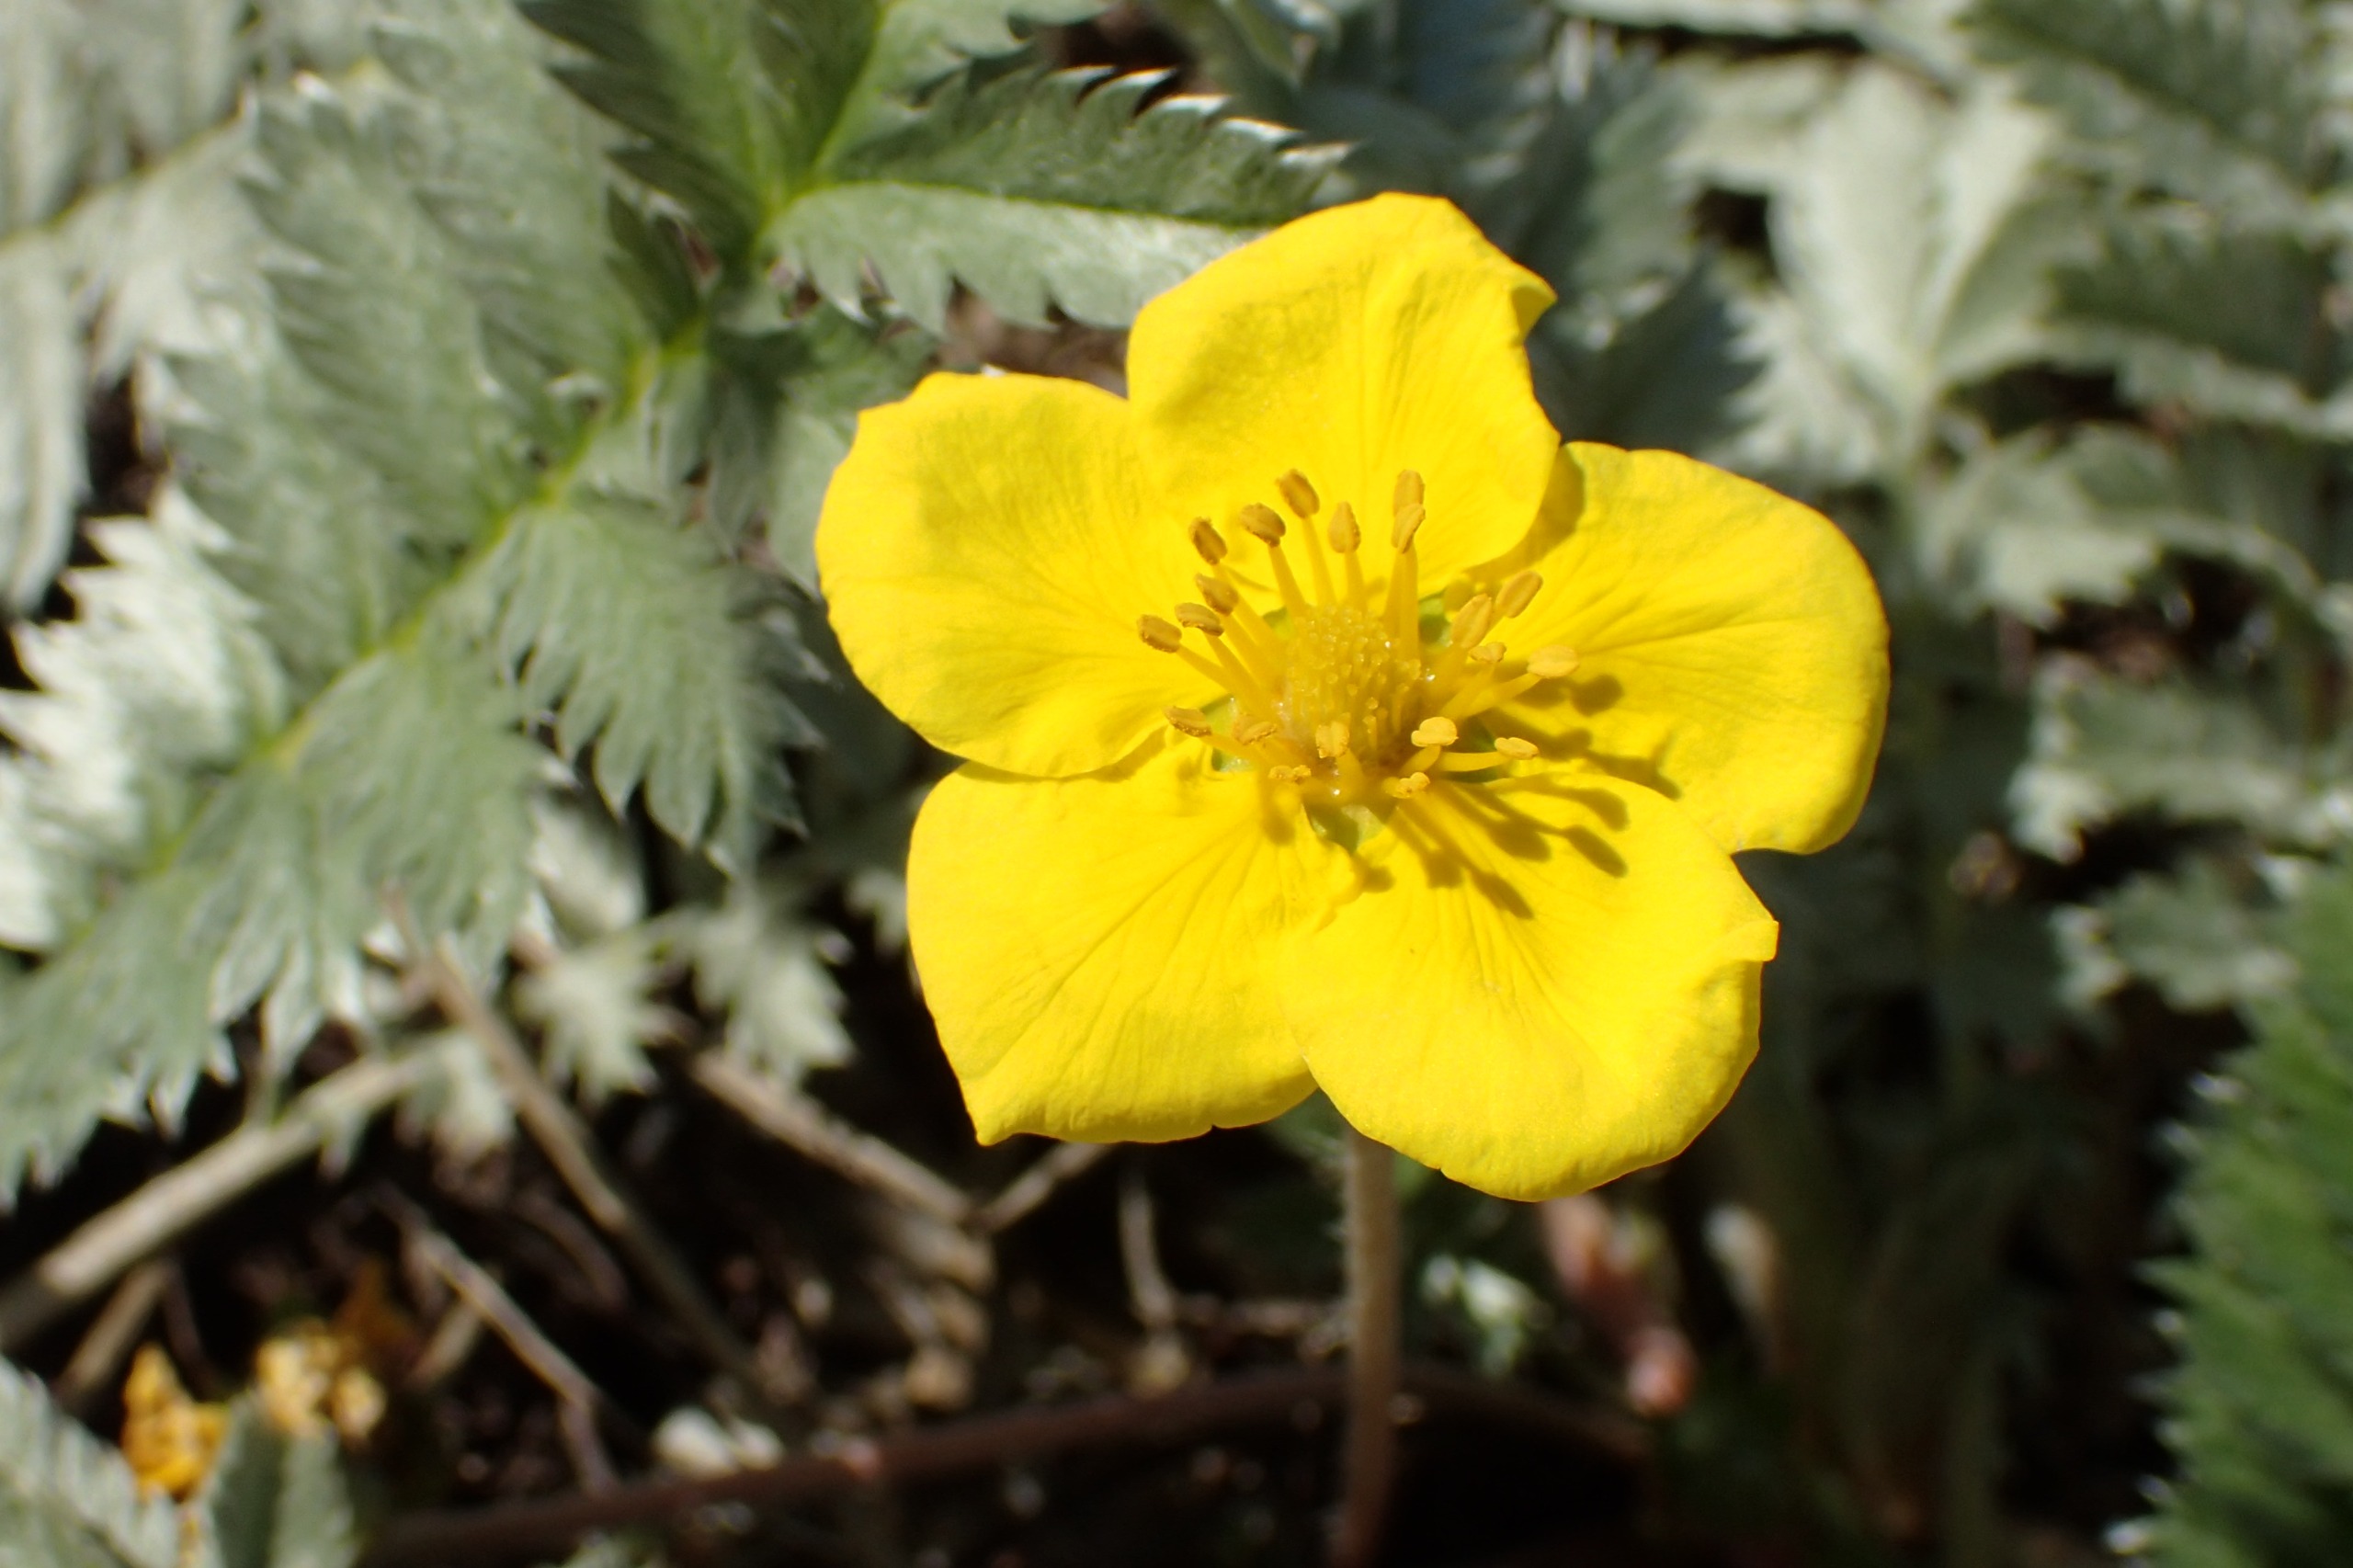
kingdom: Plantae
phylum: Tracheophyta
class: Magnoliopsida
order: Rosales
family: Rosaceae
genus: Argentina
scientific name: Argentina anserina
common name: Gåsepotentil
